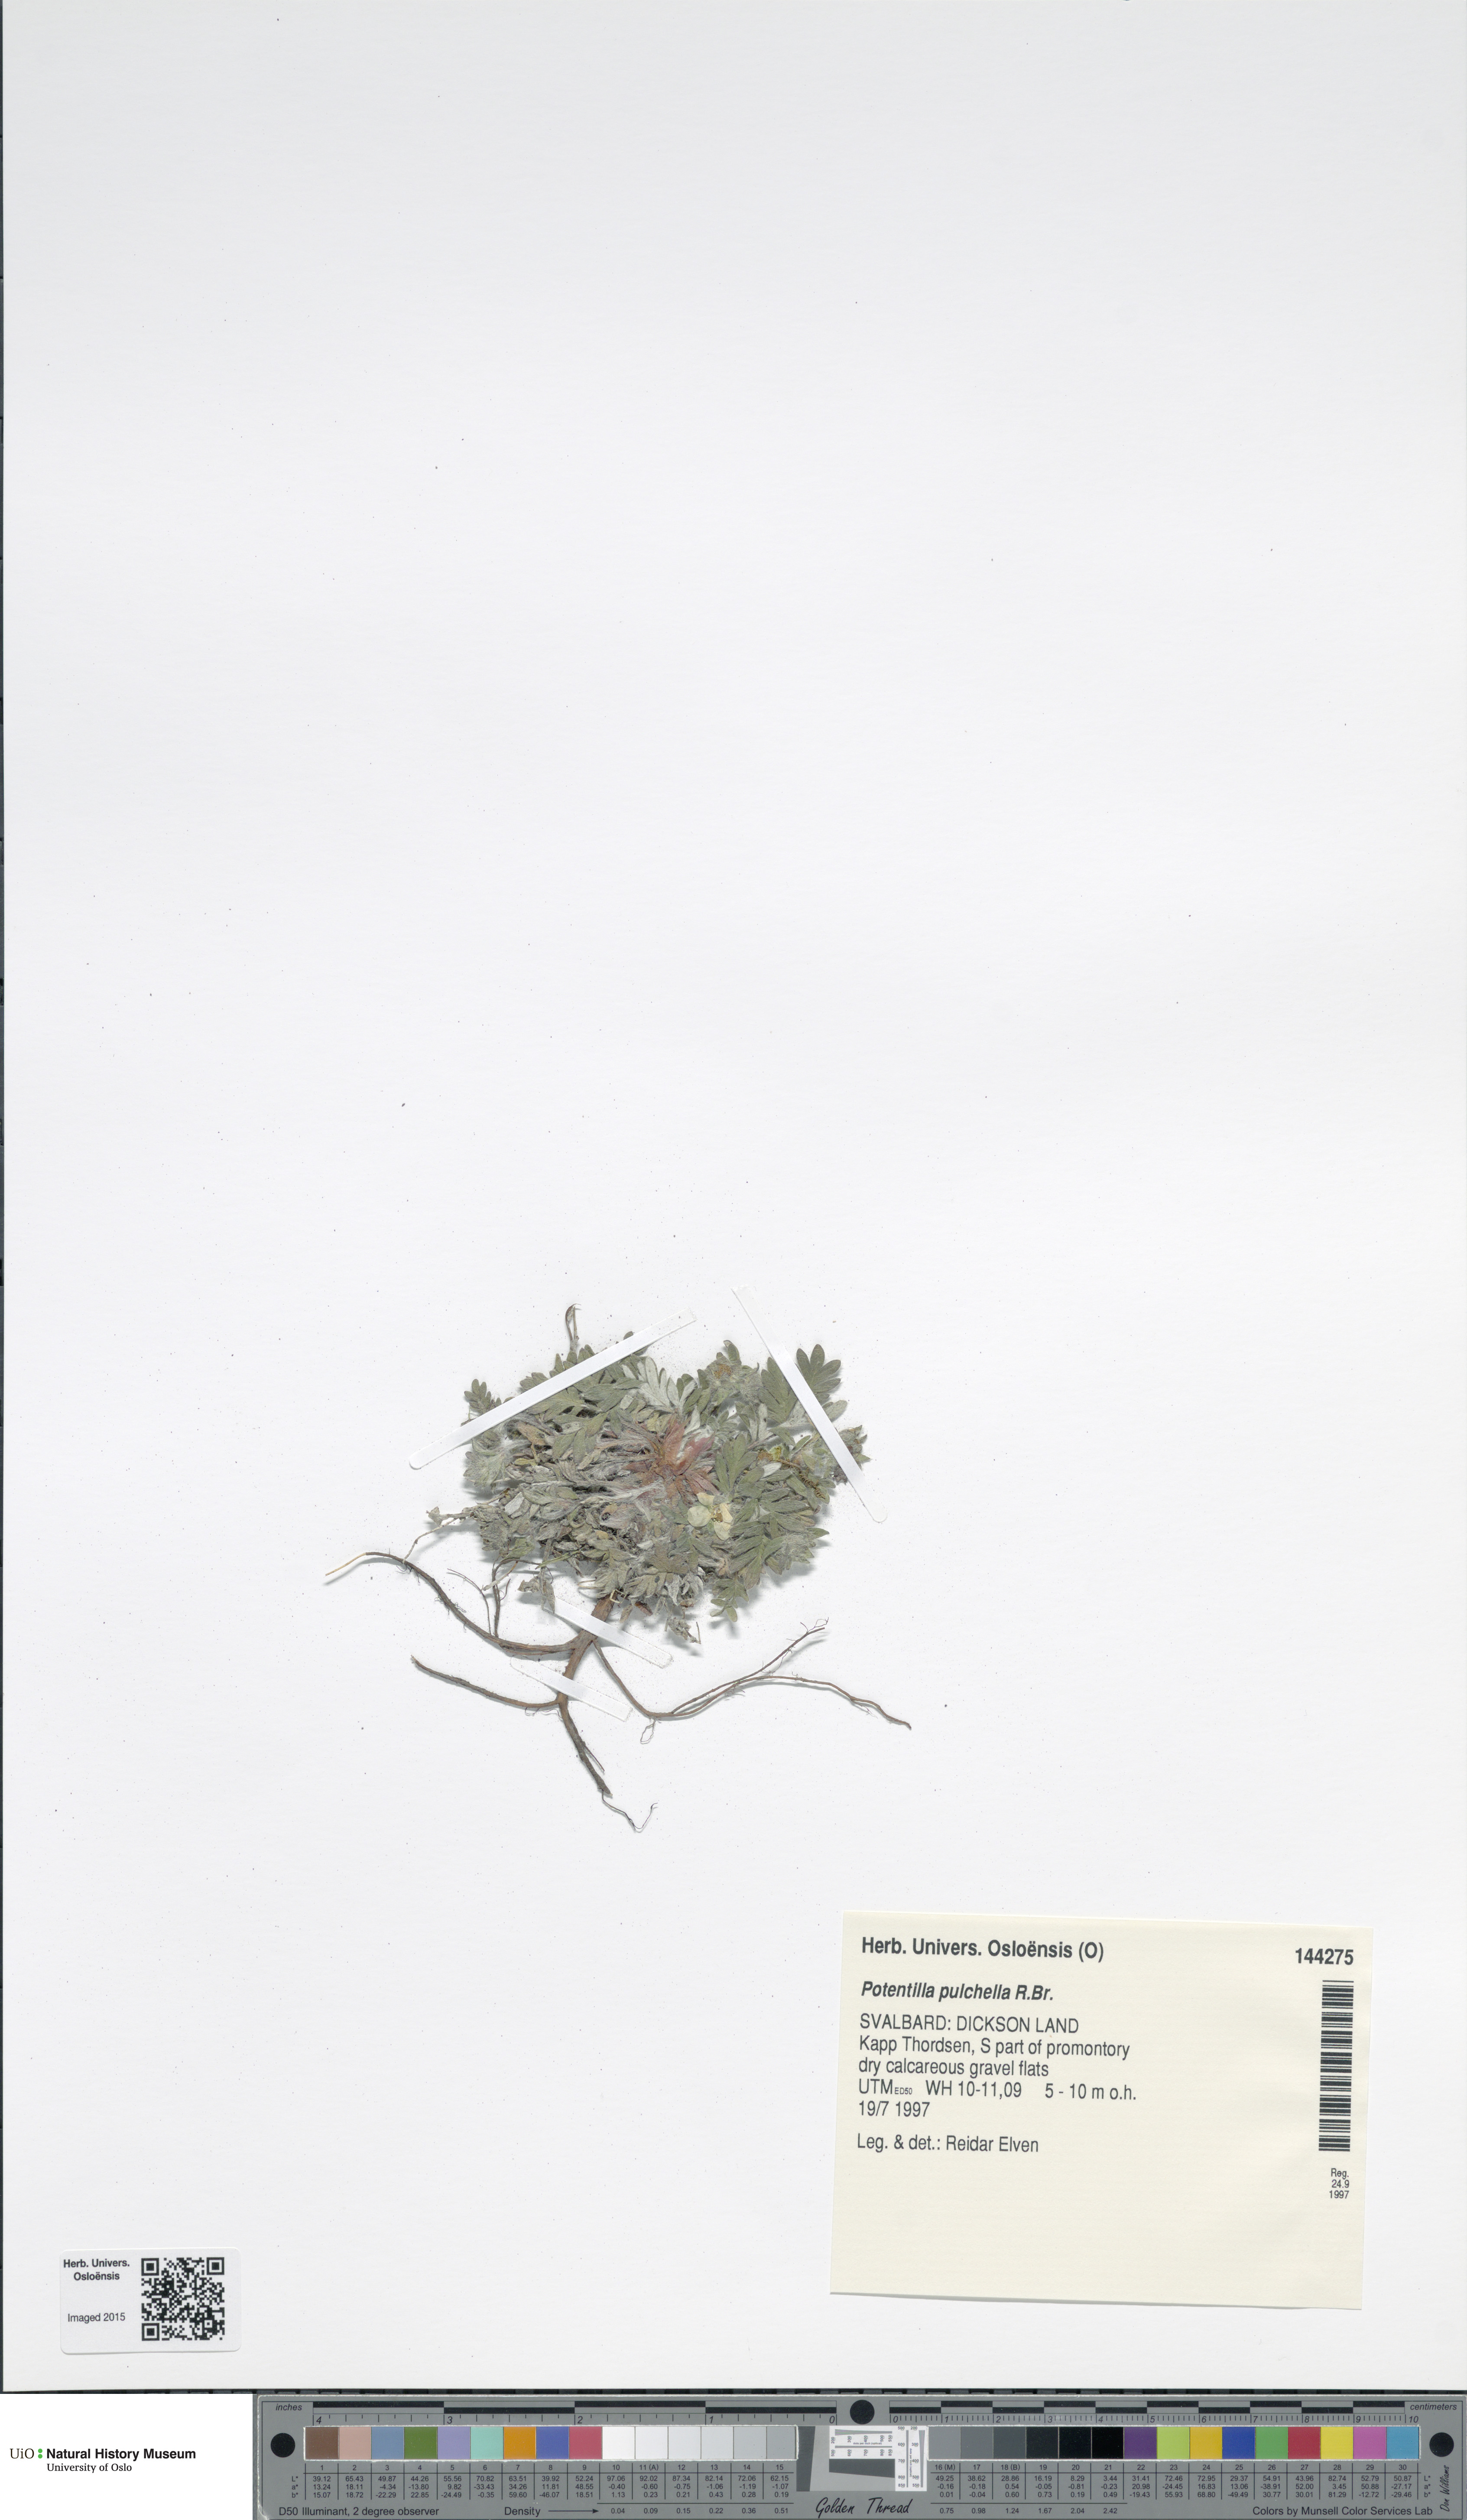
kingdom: Plantae
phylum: Tracheophyta
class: Magnoliopsida
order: Rosales
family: Rosaceae
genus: Potentilla
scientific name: Potentilla pulchella
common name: Pretty cinquefoil
